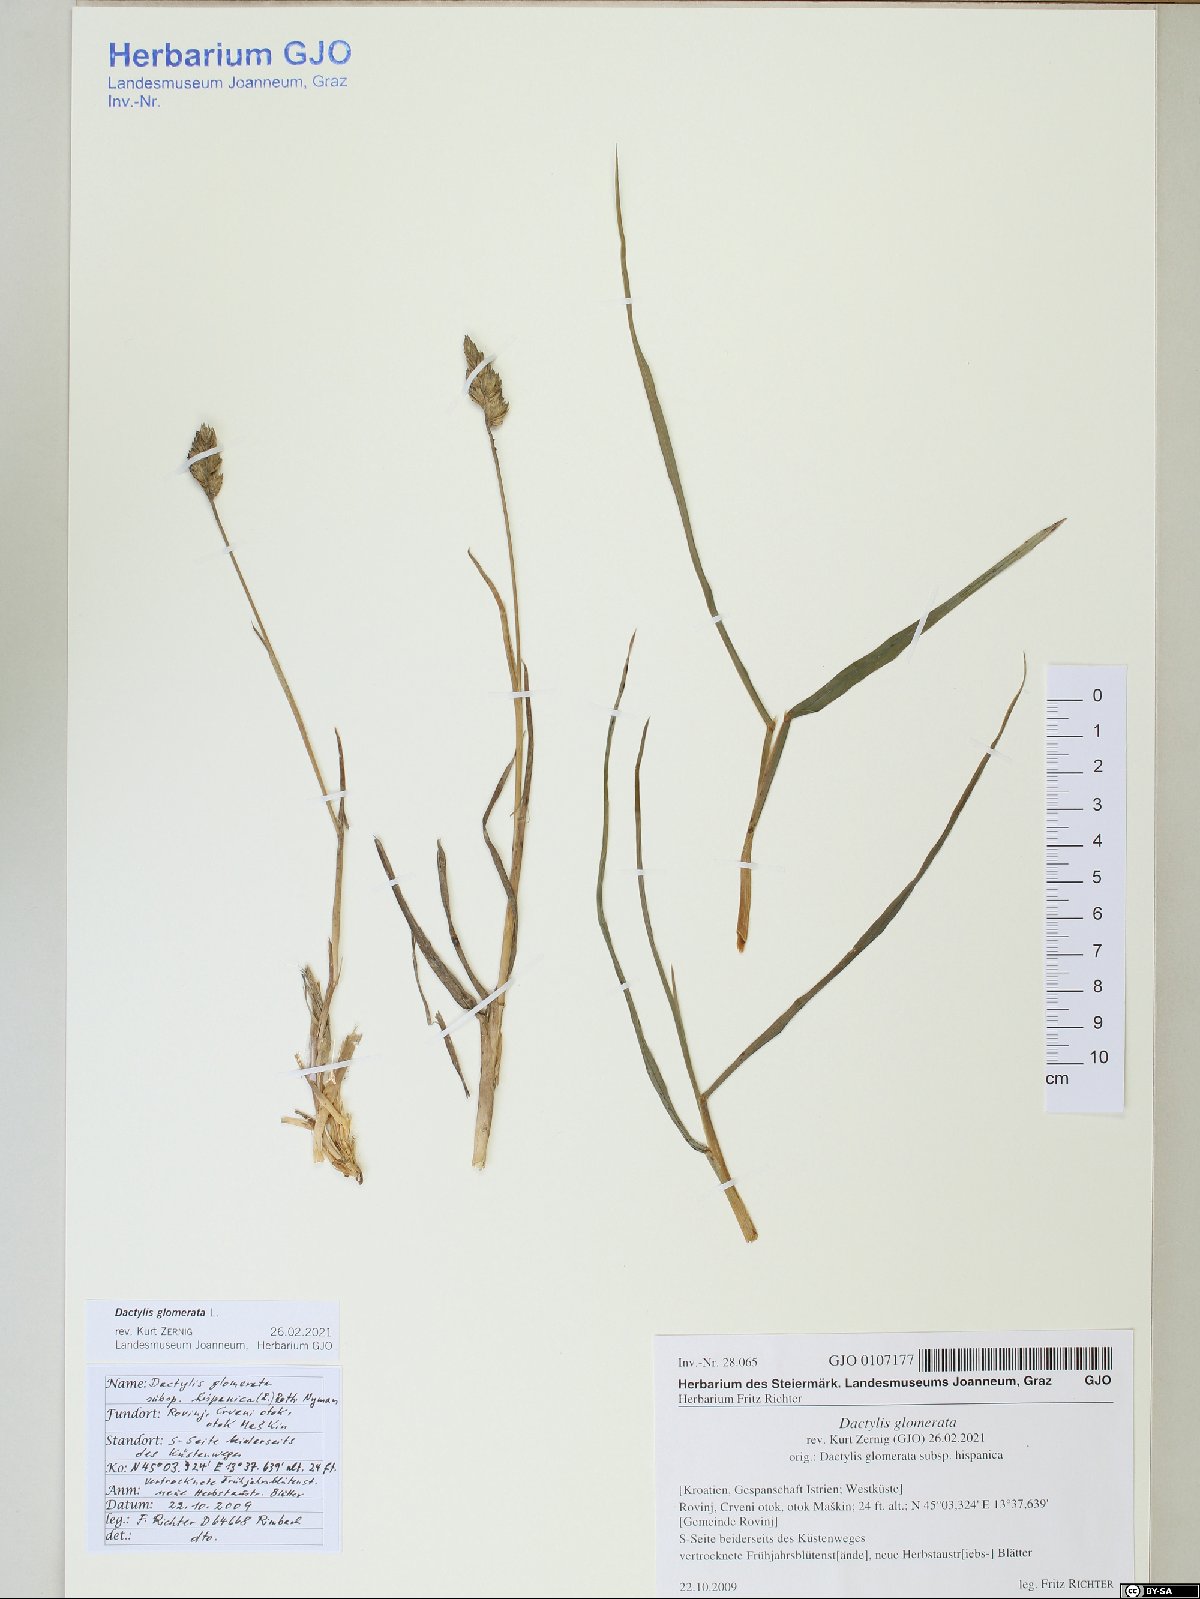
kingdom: Plantae
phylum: Tracheophyta
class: Liliopsida
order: Poales
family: Poaceae
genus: Dactylis
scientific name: Dactylis glomerata
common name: Orchardgrass
